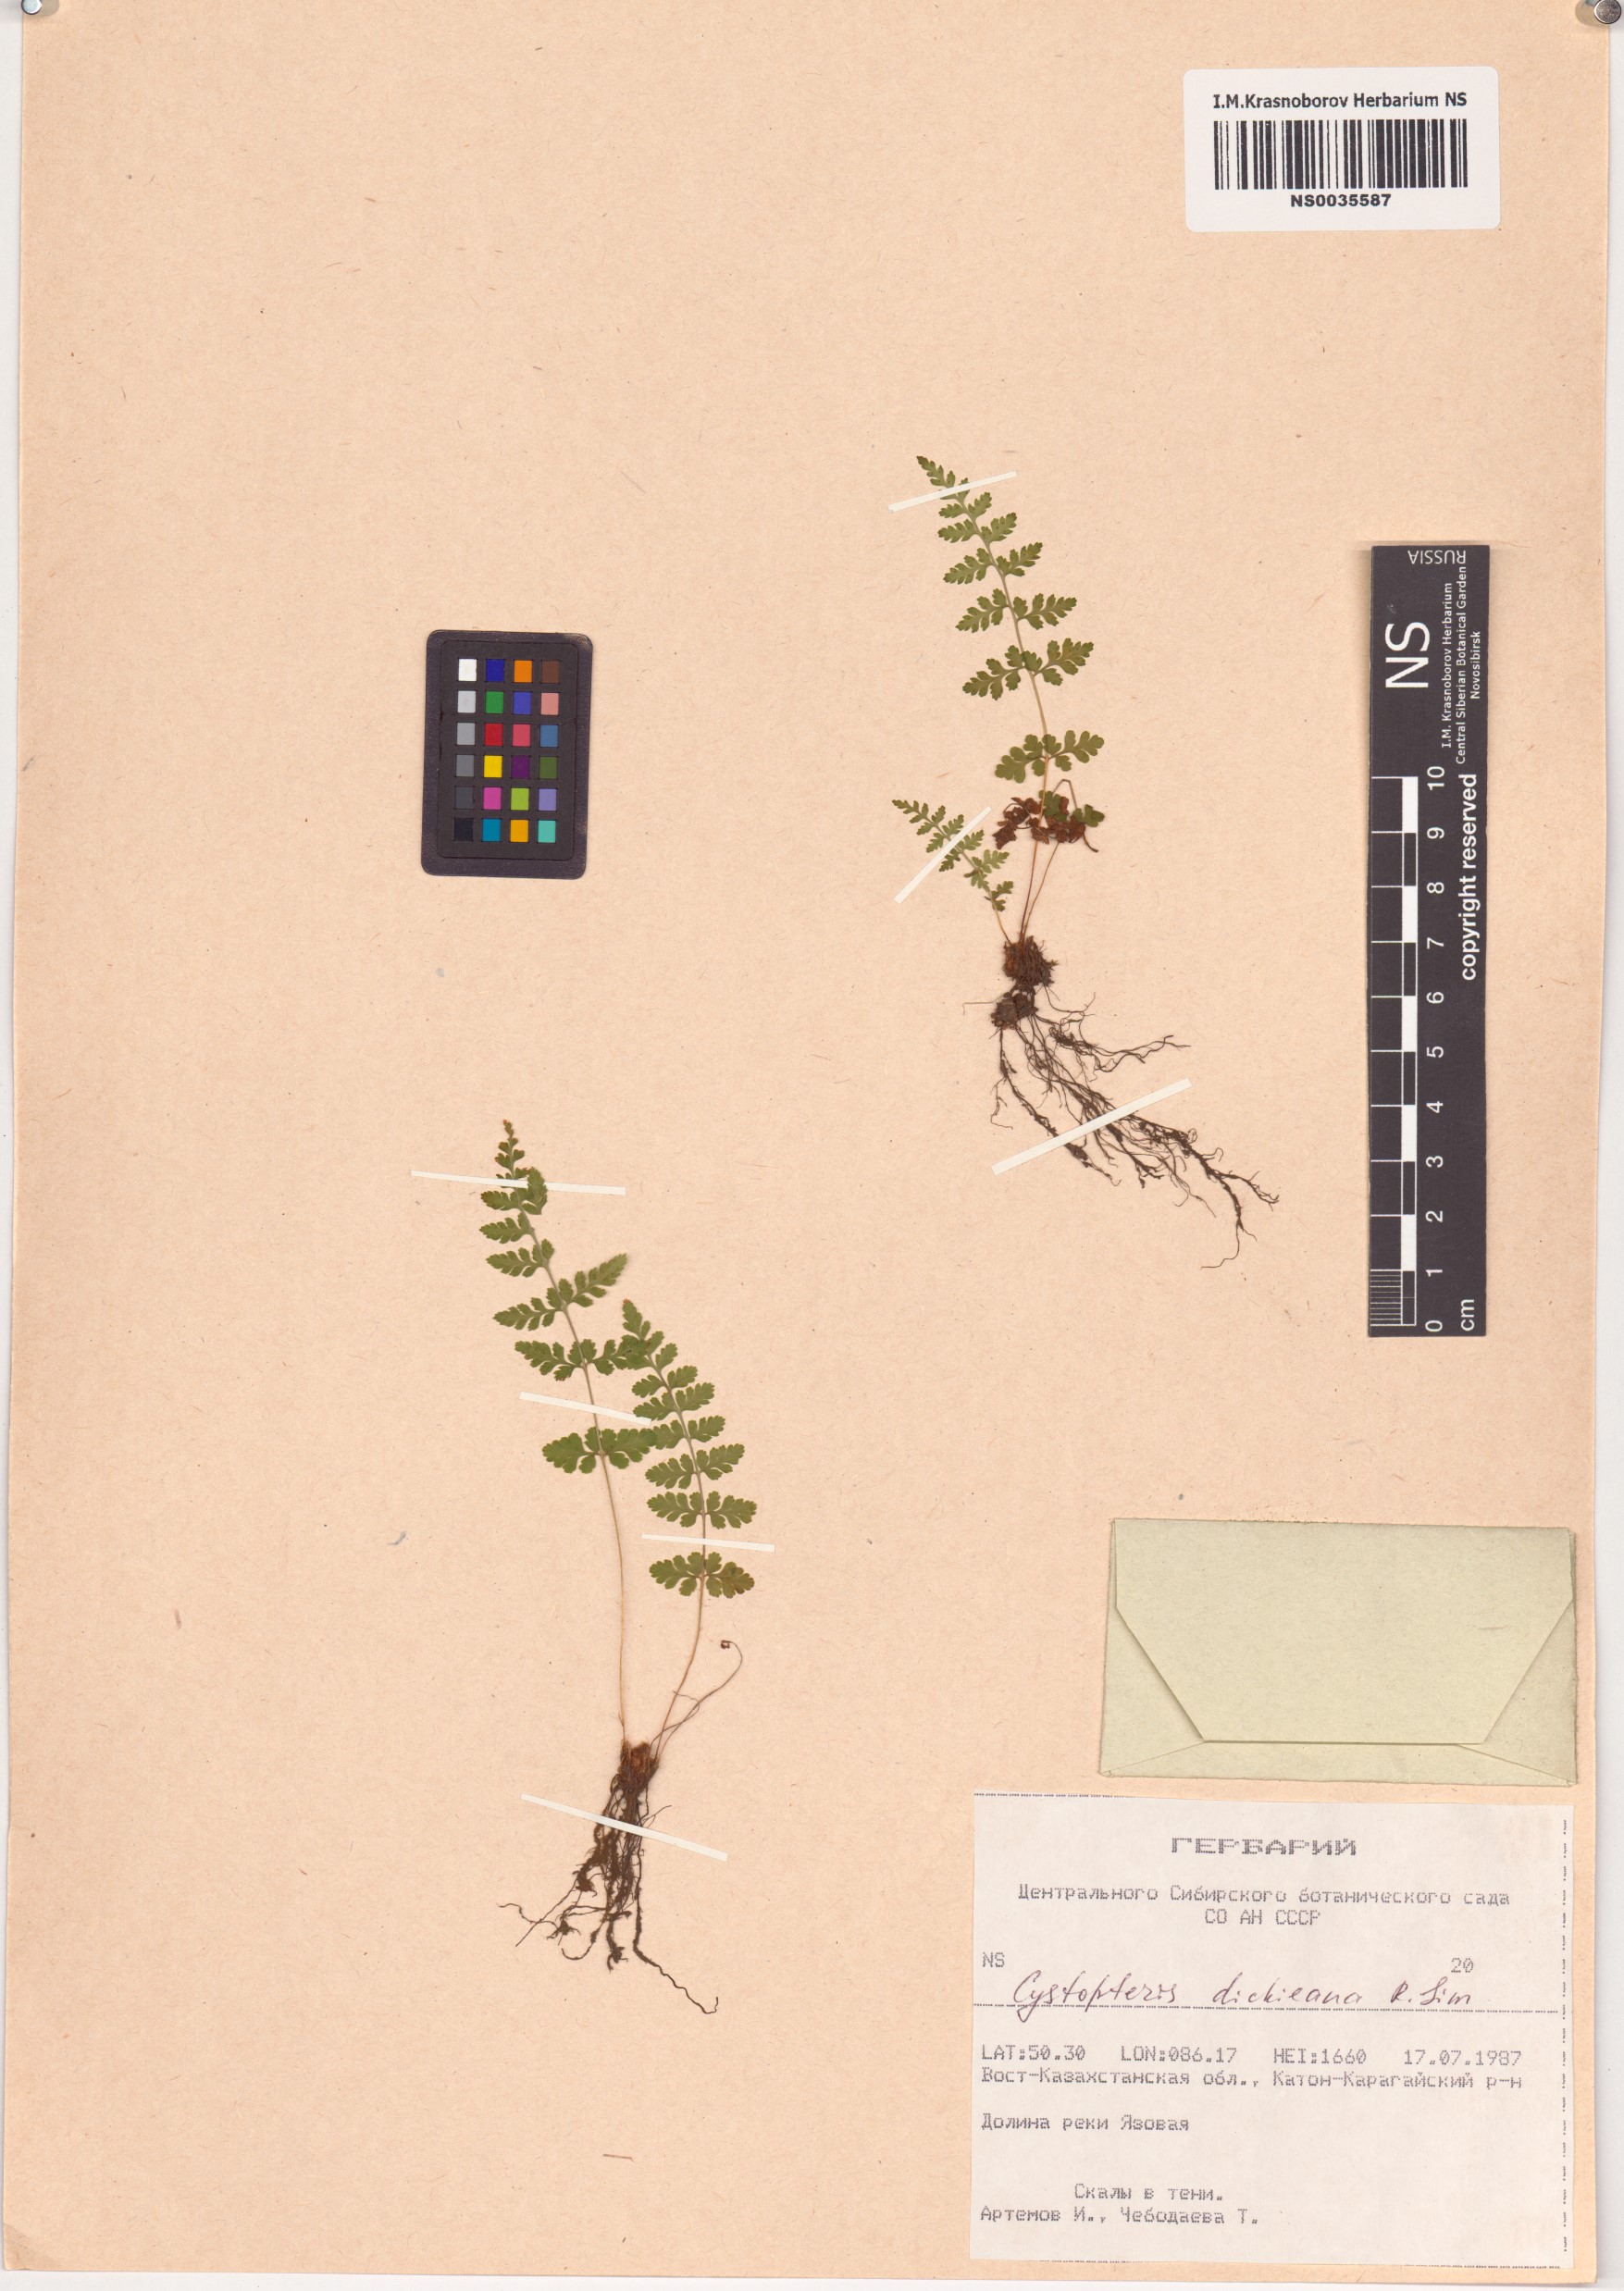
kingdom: Plantae
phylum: Tracheophyta
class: Polypodiopsida
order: Polypodiales
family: Cystopteridaceae
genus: Cystopteris
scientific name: Cystopteris dickieana
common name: Dickie's bladder-fern
